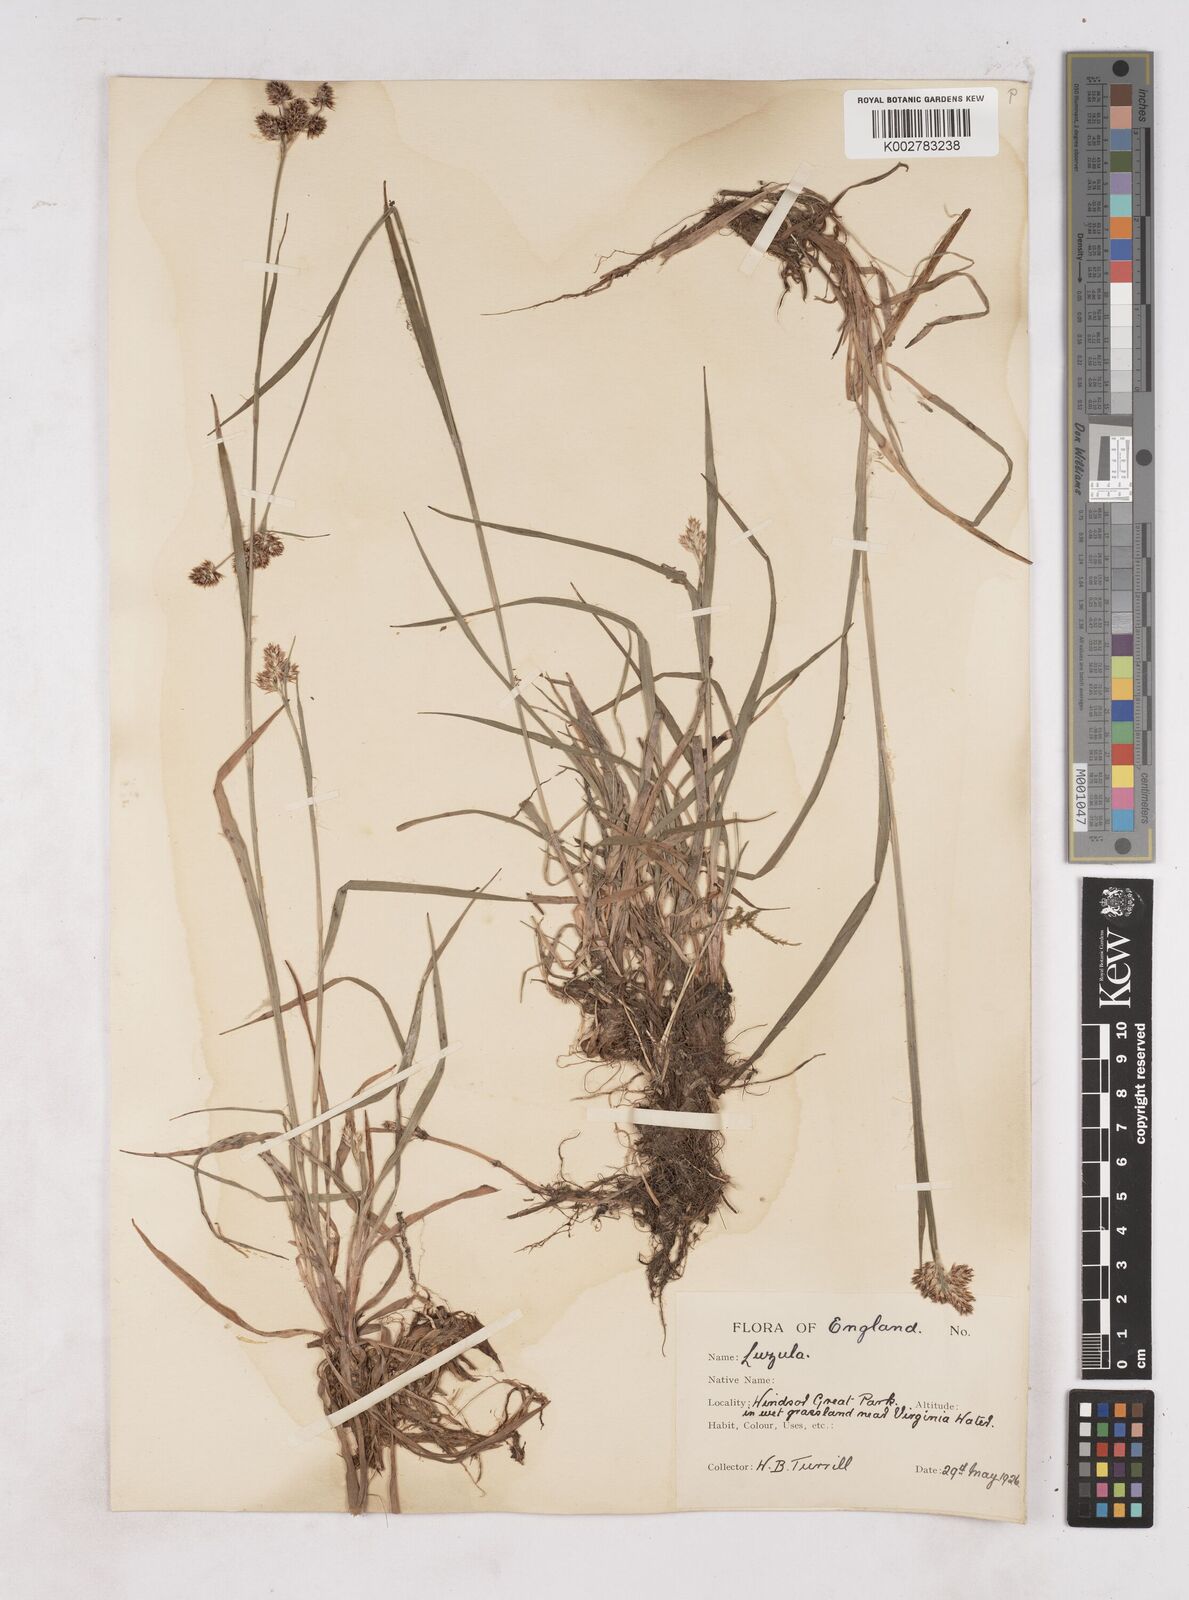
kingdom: Plantae
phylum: Tracheophyta
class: Liliopsida
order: Poales
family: Juncaceae
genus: Luzula
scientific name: Luzula multiflora
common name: Heath wood-rush
